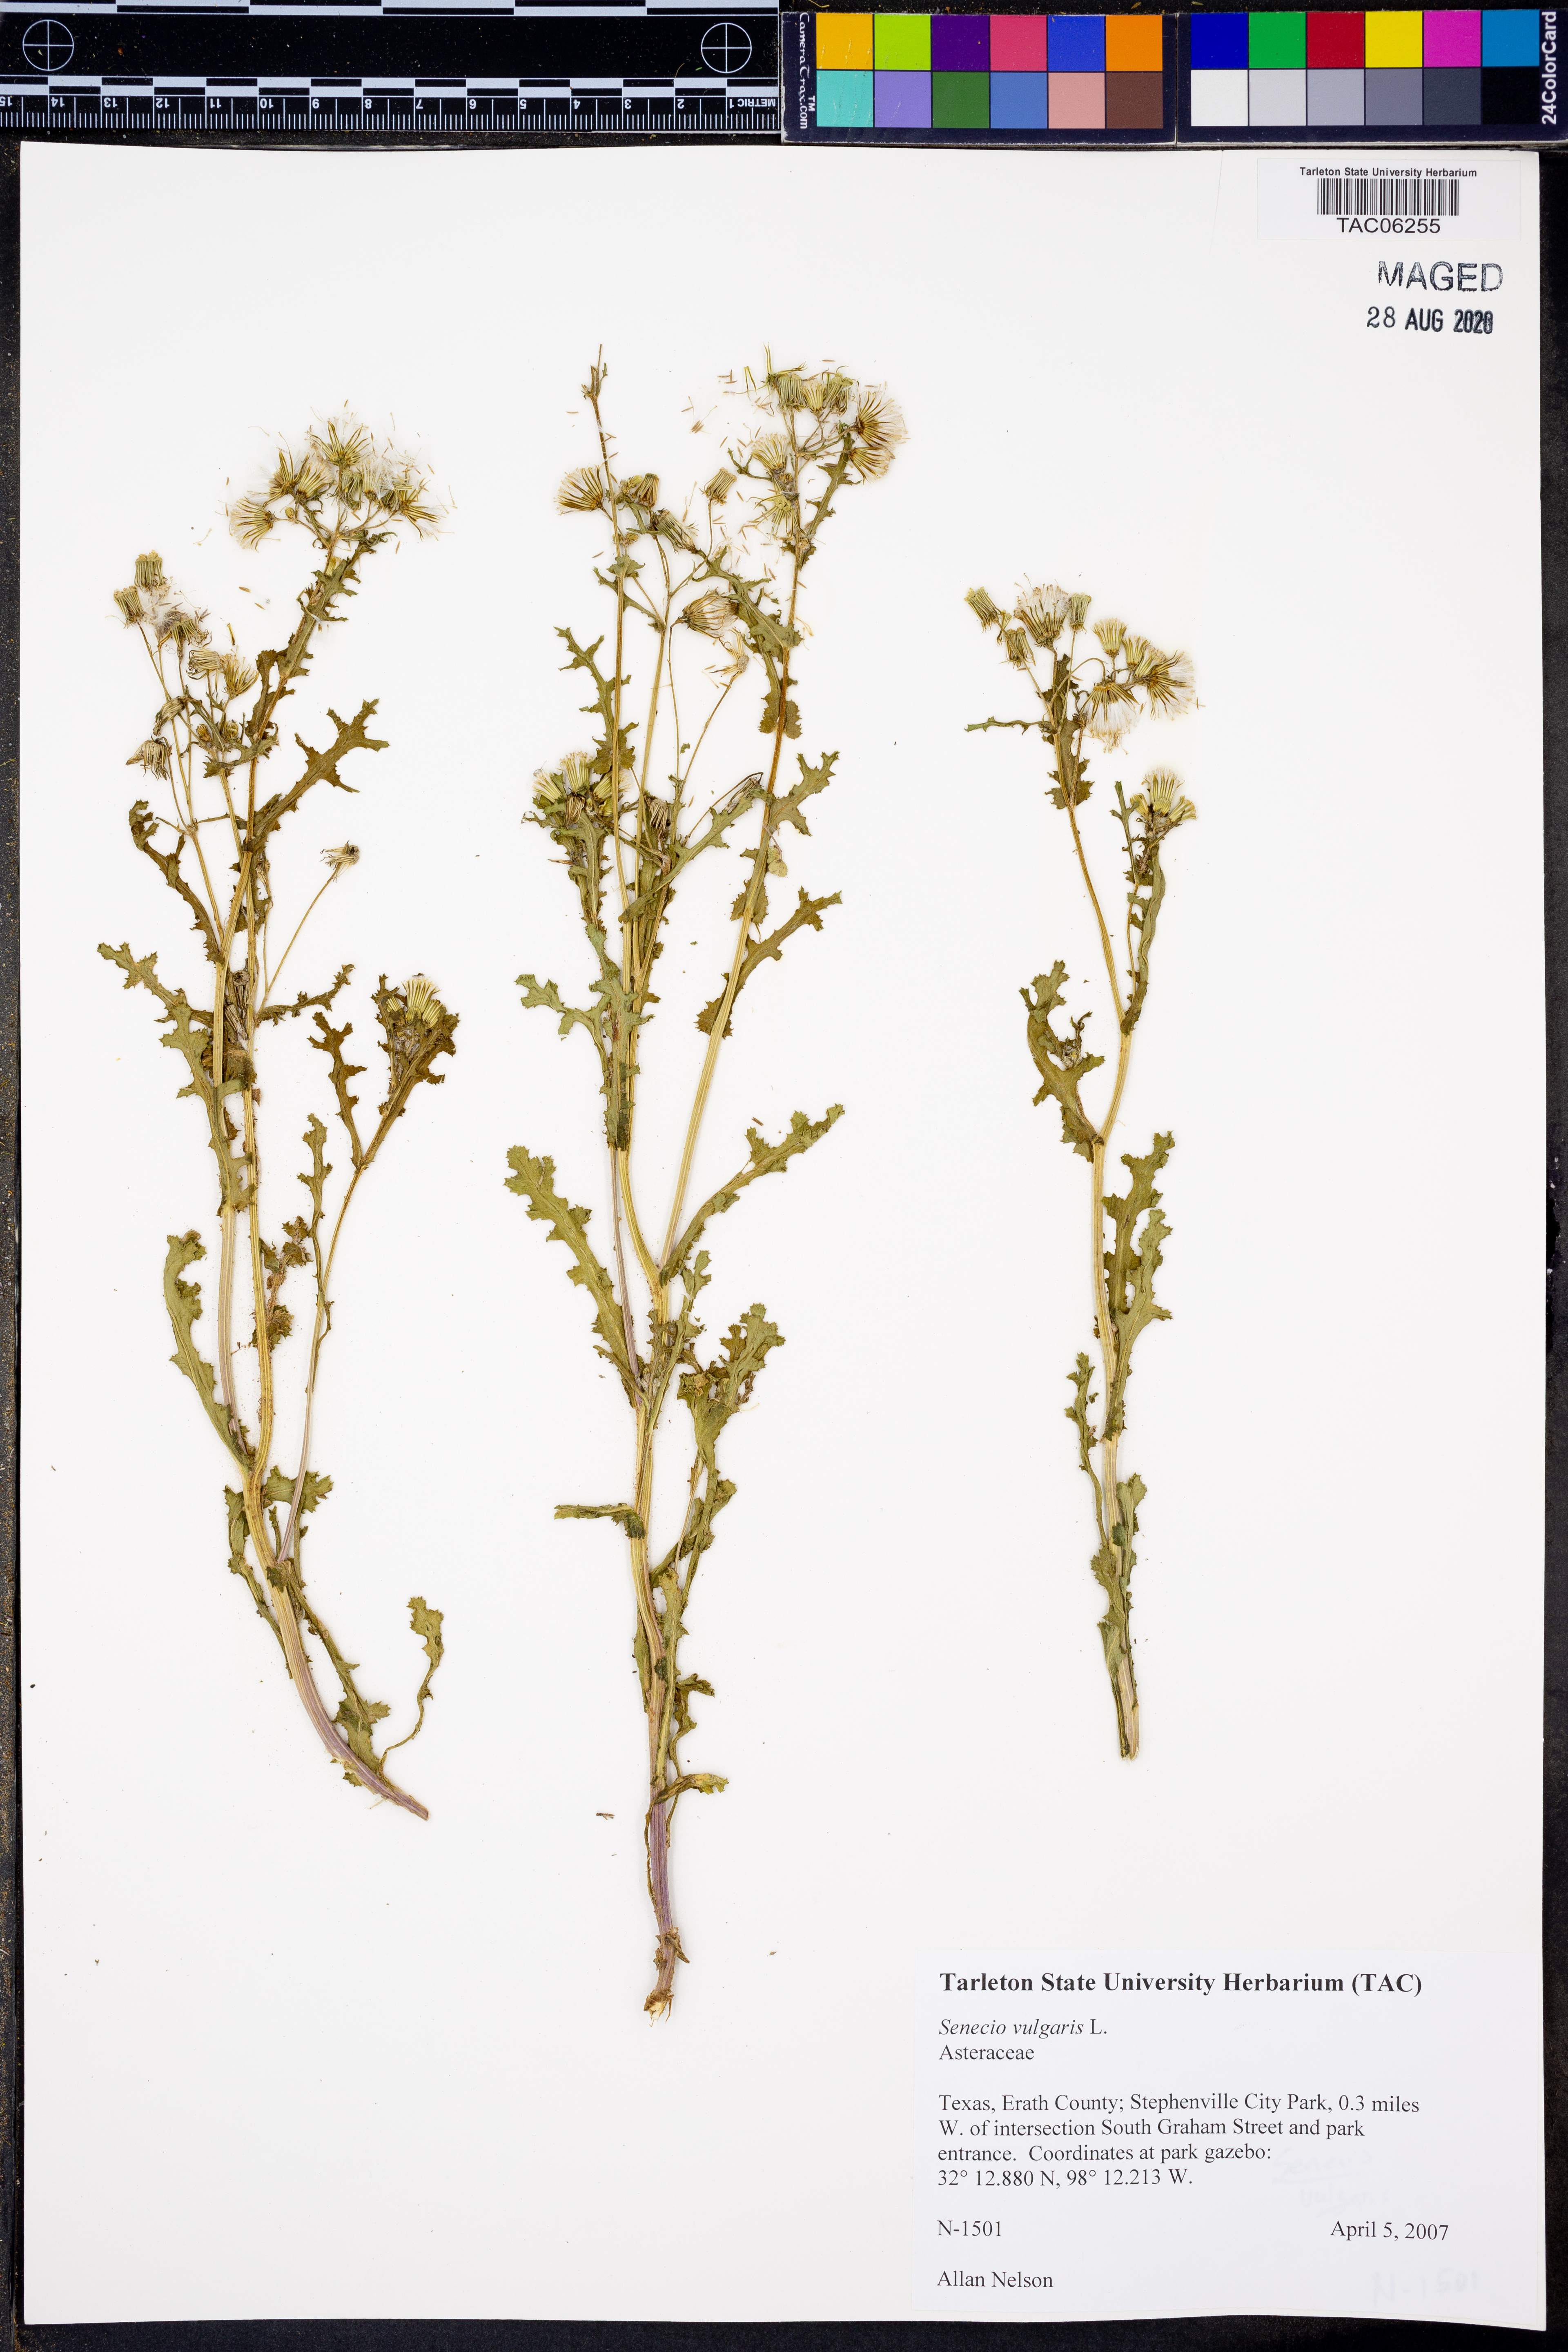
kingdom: Plantae
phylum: Tracheophyta
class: Magnoliopsida
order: Asterales
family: Asteraceae
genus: Senecio
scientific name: Senecio vulgaris
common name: Old-man-in-the-spring
